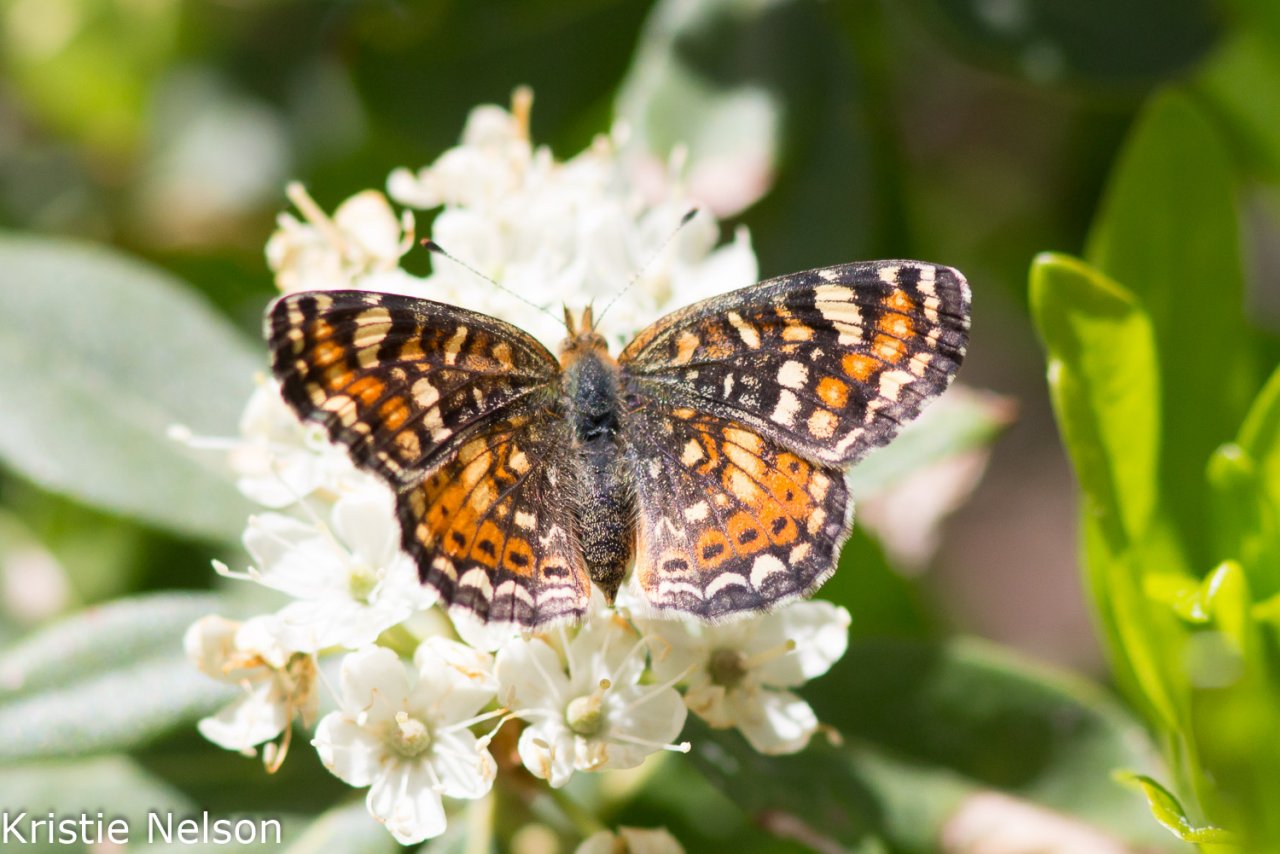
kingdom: Animalia
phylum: Arthropoda
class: Insecta
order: Lepidoptera
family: Nymphalidae
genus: Phyciodes
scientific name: Phyciodes tharos
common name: Field Crescent
